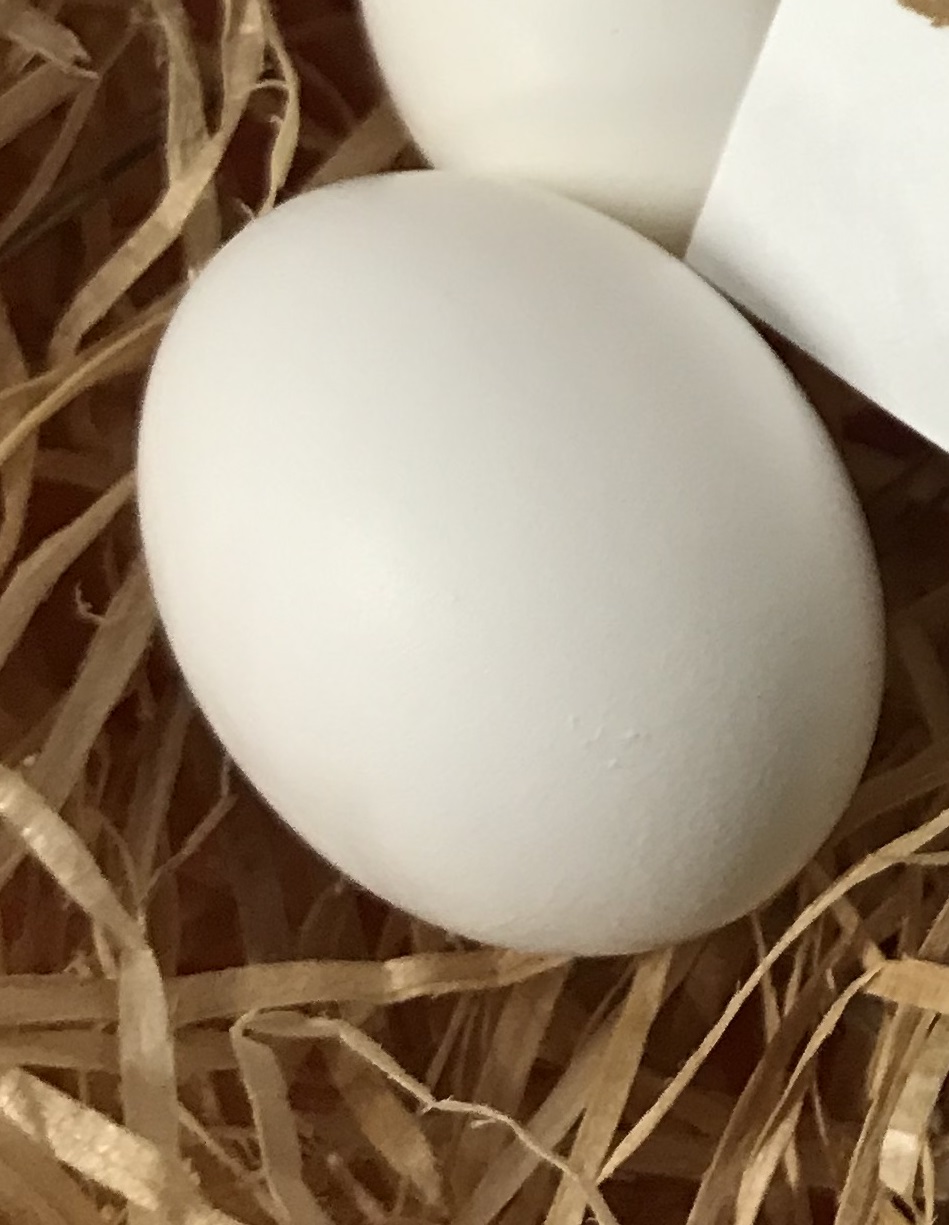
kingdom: Animalia
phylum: Chordata
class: Aves
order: Columbiformes
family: Columbidae
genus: Streptopelia
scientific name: Streptopelia turtur
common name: European turtle dove
